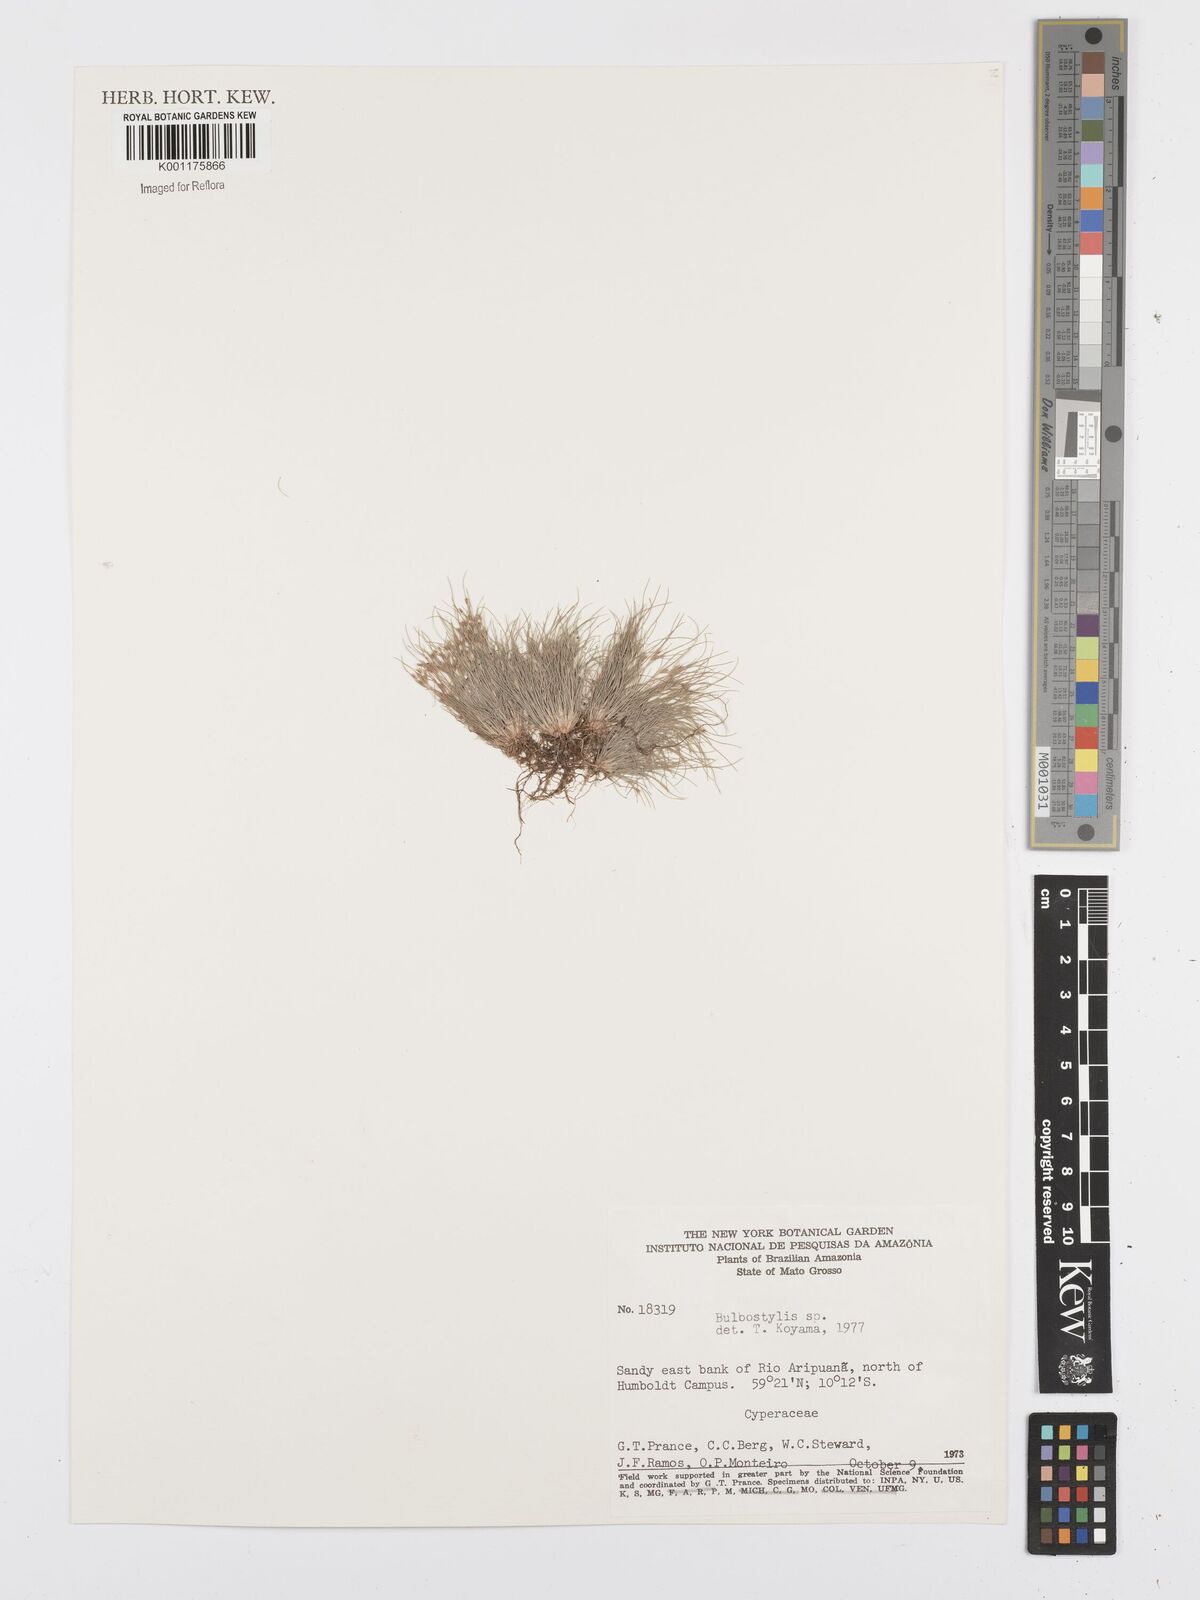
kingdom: Plantae
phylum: Tracheophyta
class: Liliopsida
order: Poales
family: Cyperaceae
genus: Bulbostylis
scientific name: Bulbostylis
